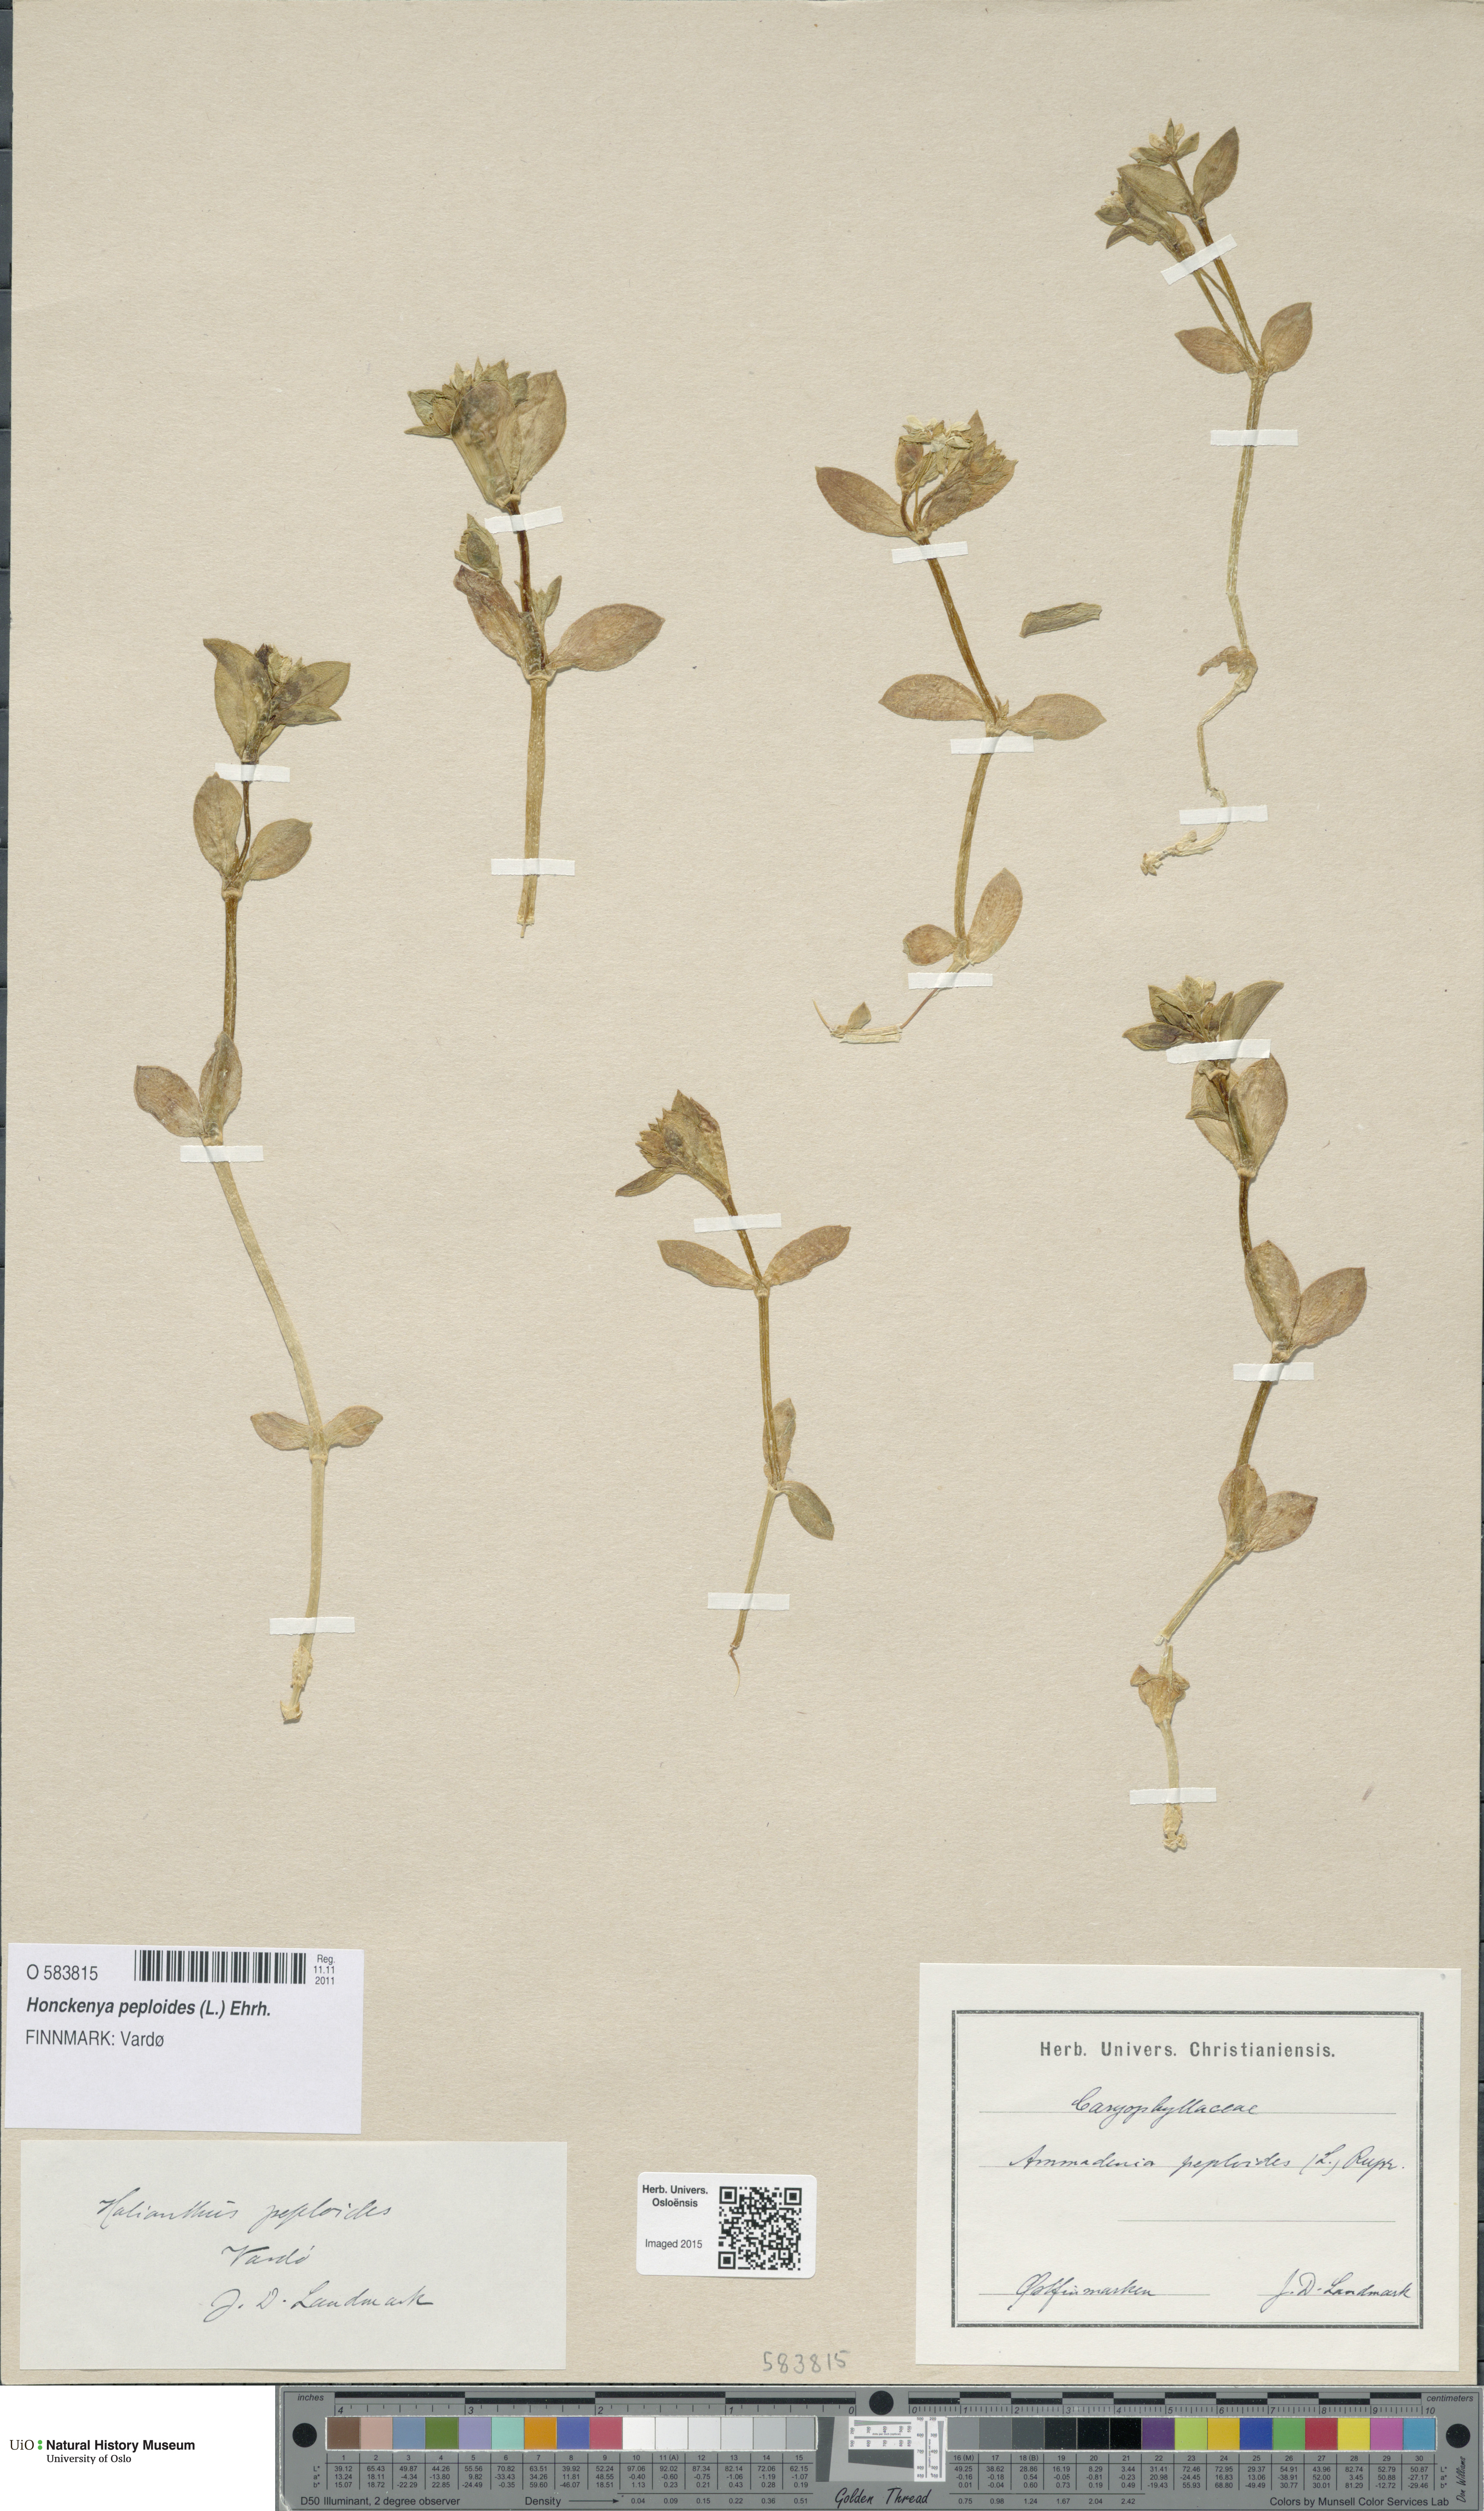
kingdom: Plantae
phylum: Tracheophyta
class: Magnoliopsida
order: Caryophyllales
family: Caryophyllaceae
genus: Honckenya
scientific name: Honckenya peploides
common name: Sea sandwort
